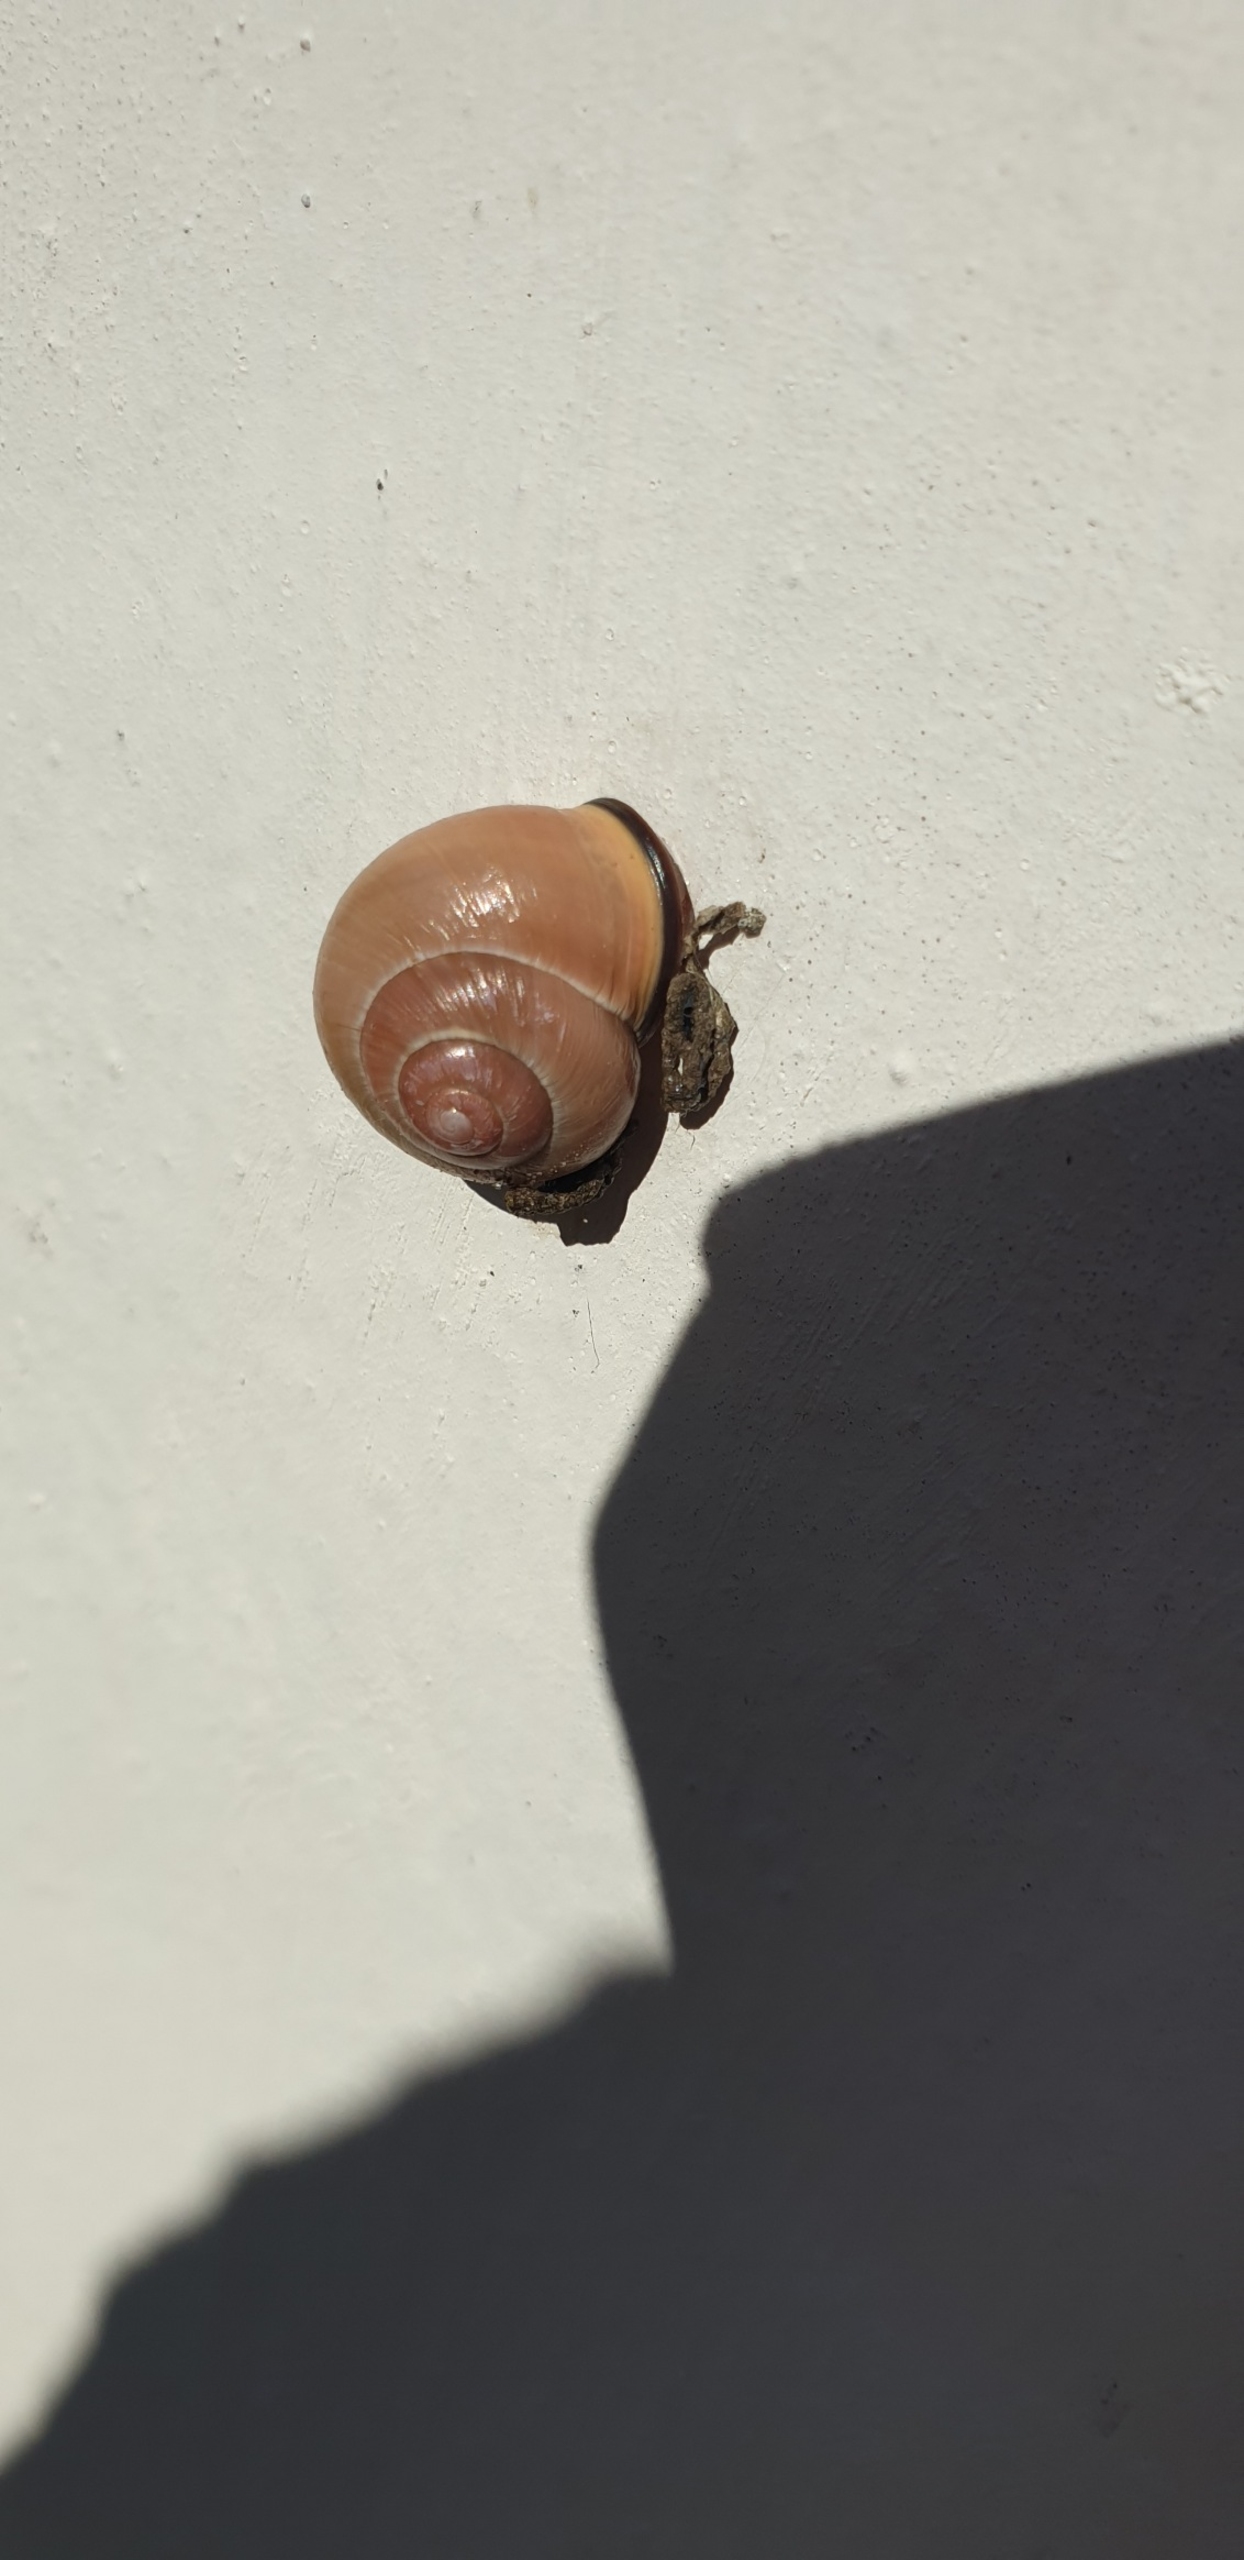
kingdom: Animalia
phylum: Mollusca
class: Gastropoda
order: Stylommatophora
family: Helicidae
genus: Cepaea
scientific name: Cepaea nemoralis
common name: Lundsnegl
